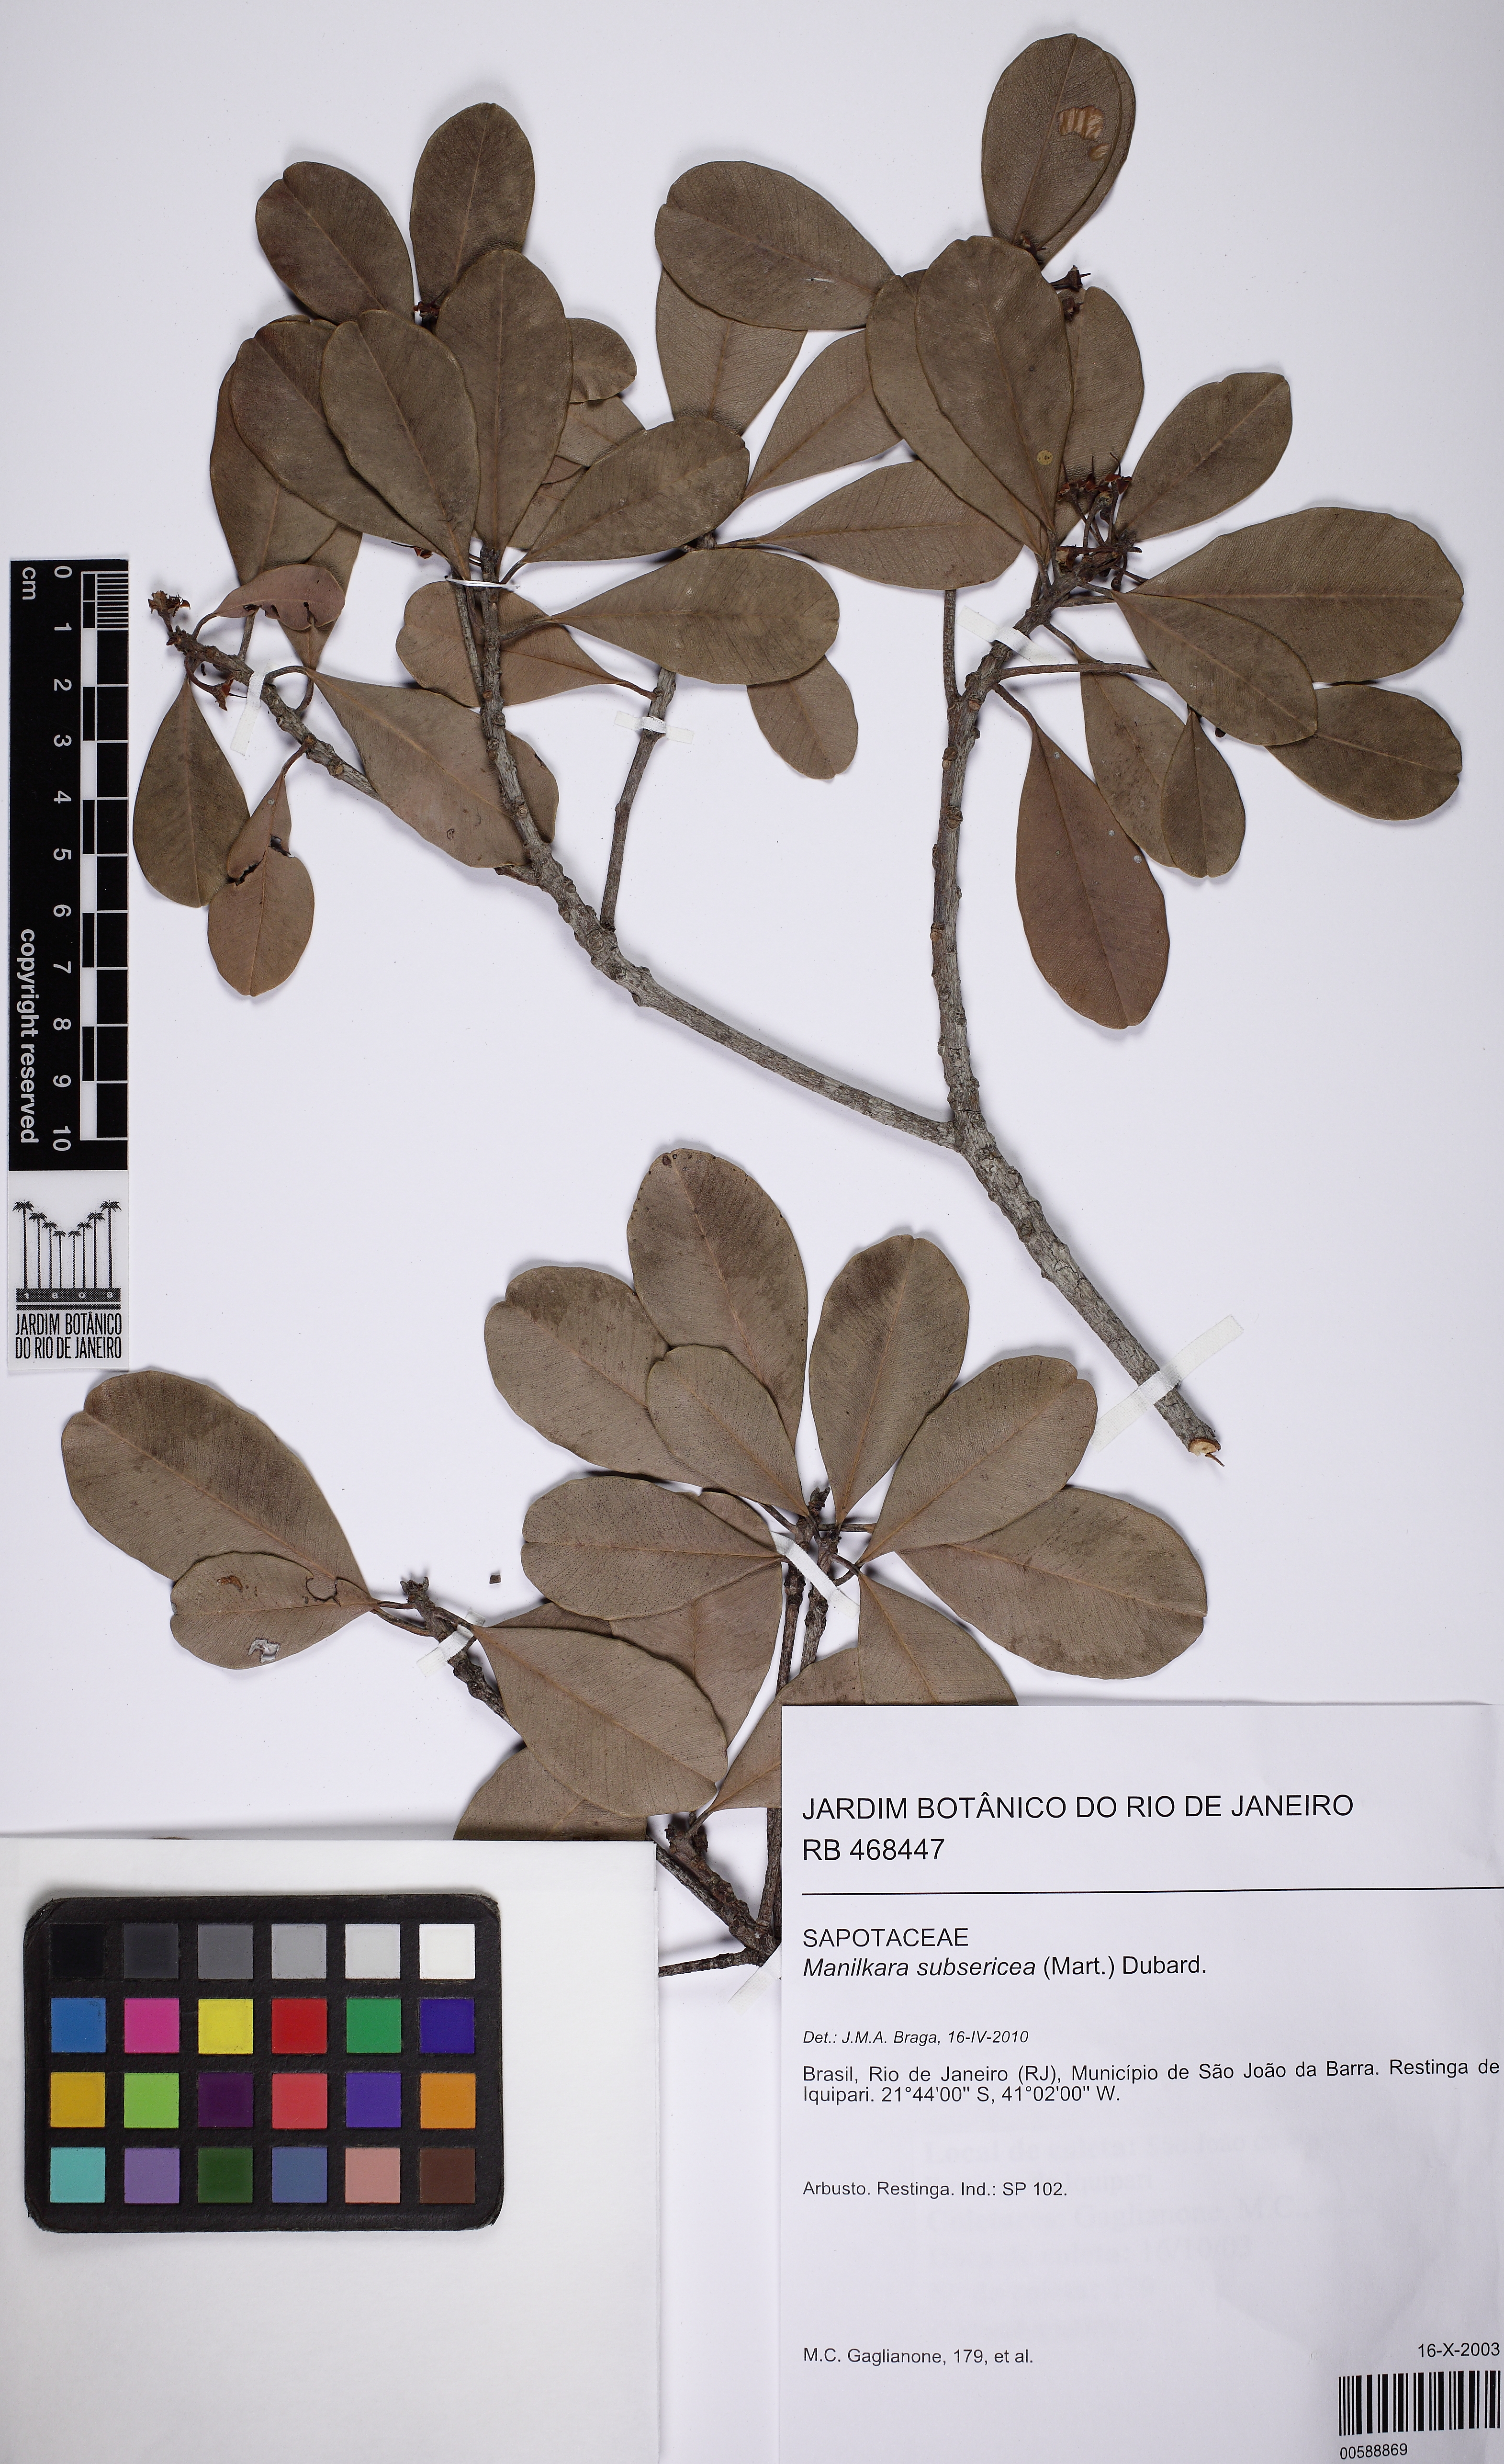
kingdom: Plantae
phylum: Tracheophyta
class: Magnoliopsida
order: Ericales
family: Sapotaceae
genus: Manilkara
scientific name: Manilkara subsericea
